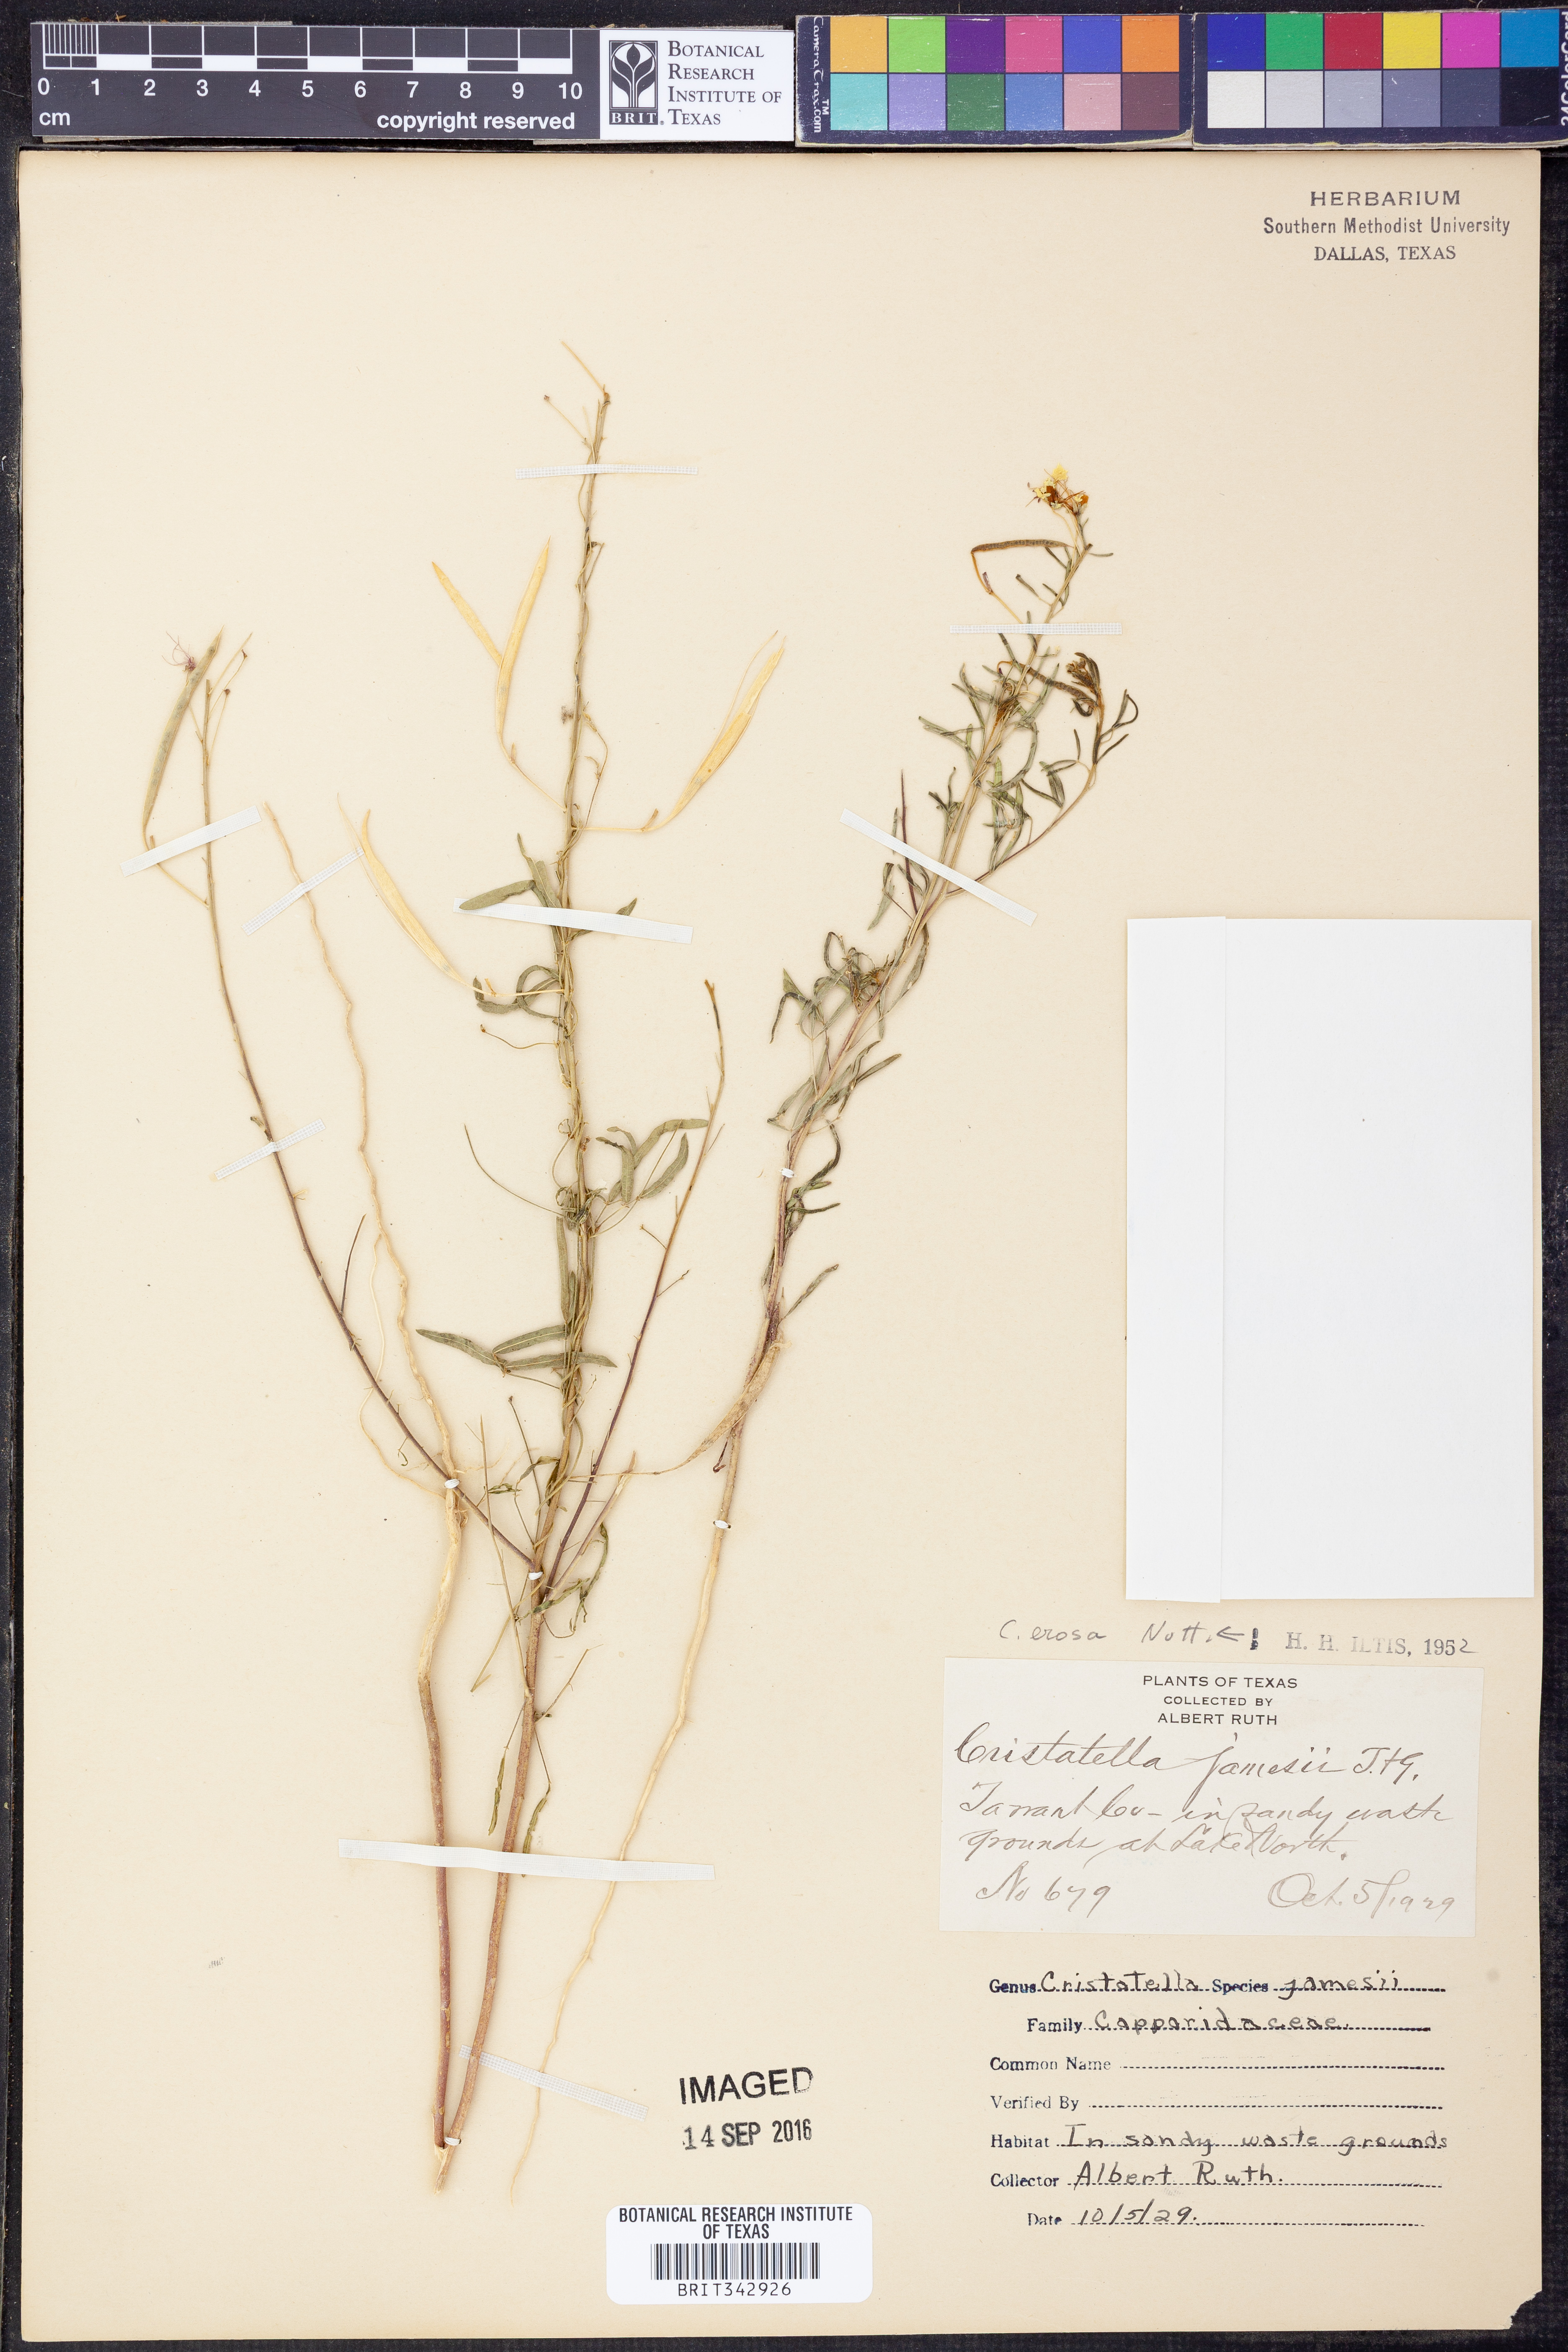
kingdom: Plantae
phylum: Tracheophyta
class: Magnoliopsida
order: Brassicales
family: Cleomaceae
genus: Polanisia
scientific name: Polanisia erosa
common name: Large clammyweed
